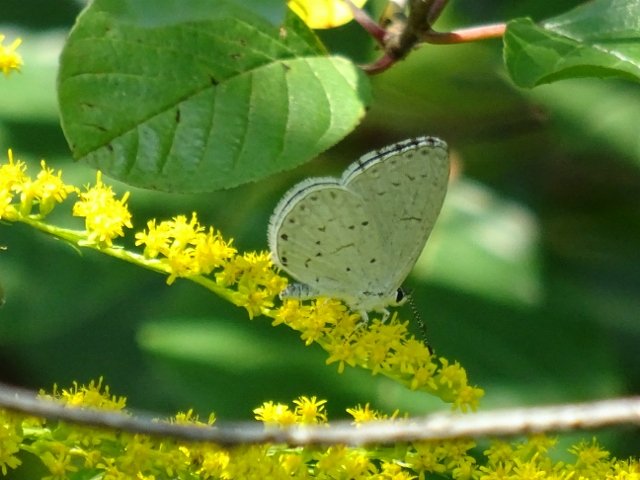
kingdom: Animalia
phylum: Arthropoda
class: Insecta
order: Lepidoptera
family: Lycaenidae
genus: Cyaniris
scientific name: Cyaniris neglecta
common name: Summer Azure
